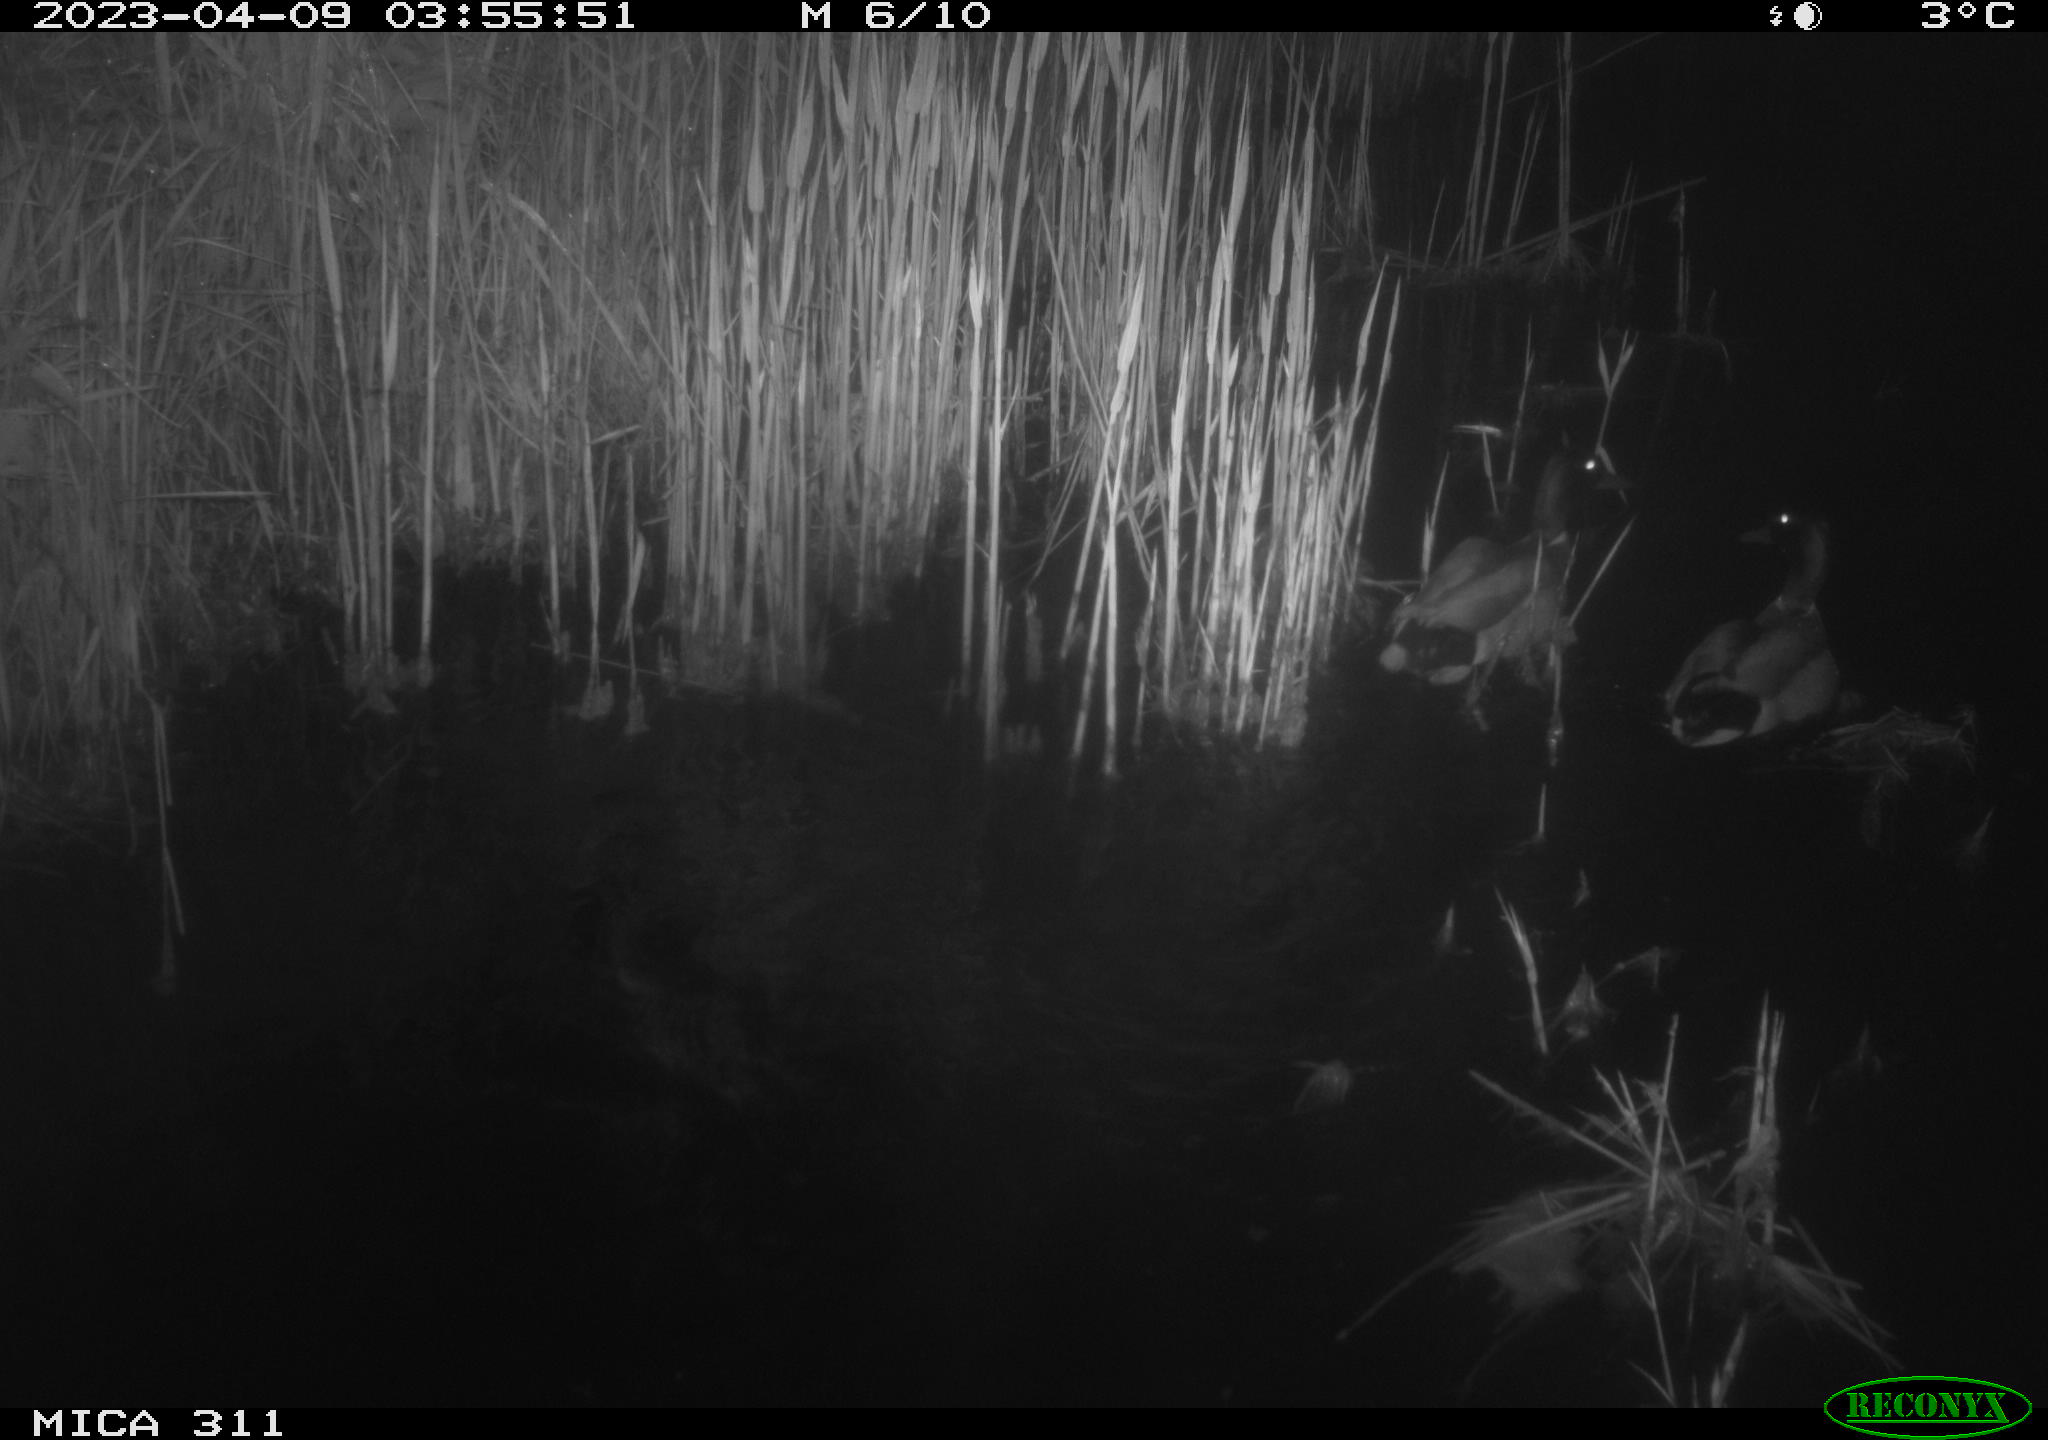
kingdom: Animalia
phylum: Chordata
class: Aves
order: Anseriformes
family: Anatidae
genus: Anas
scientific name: Anas
